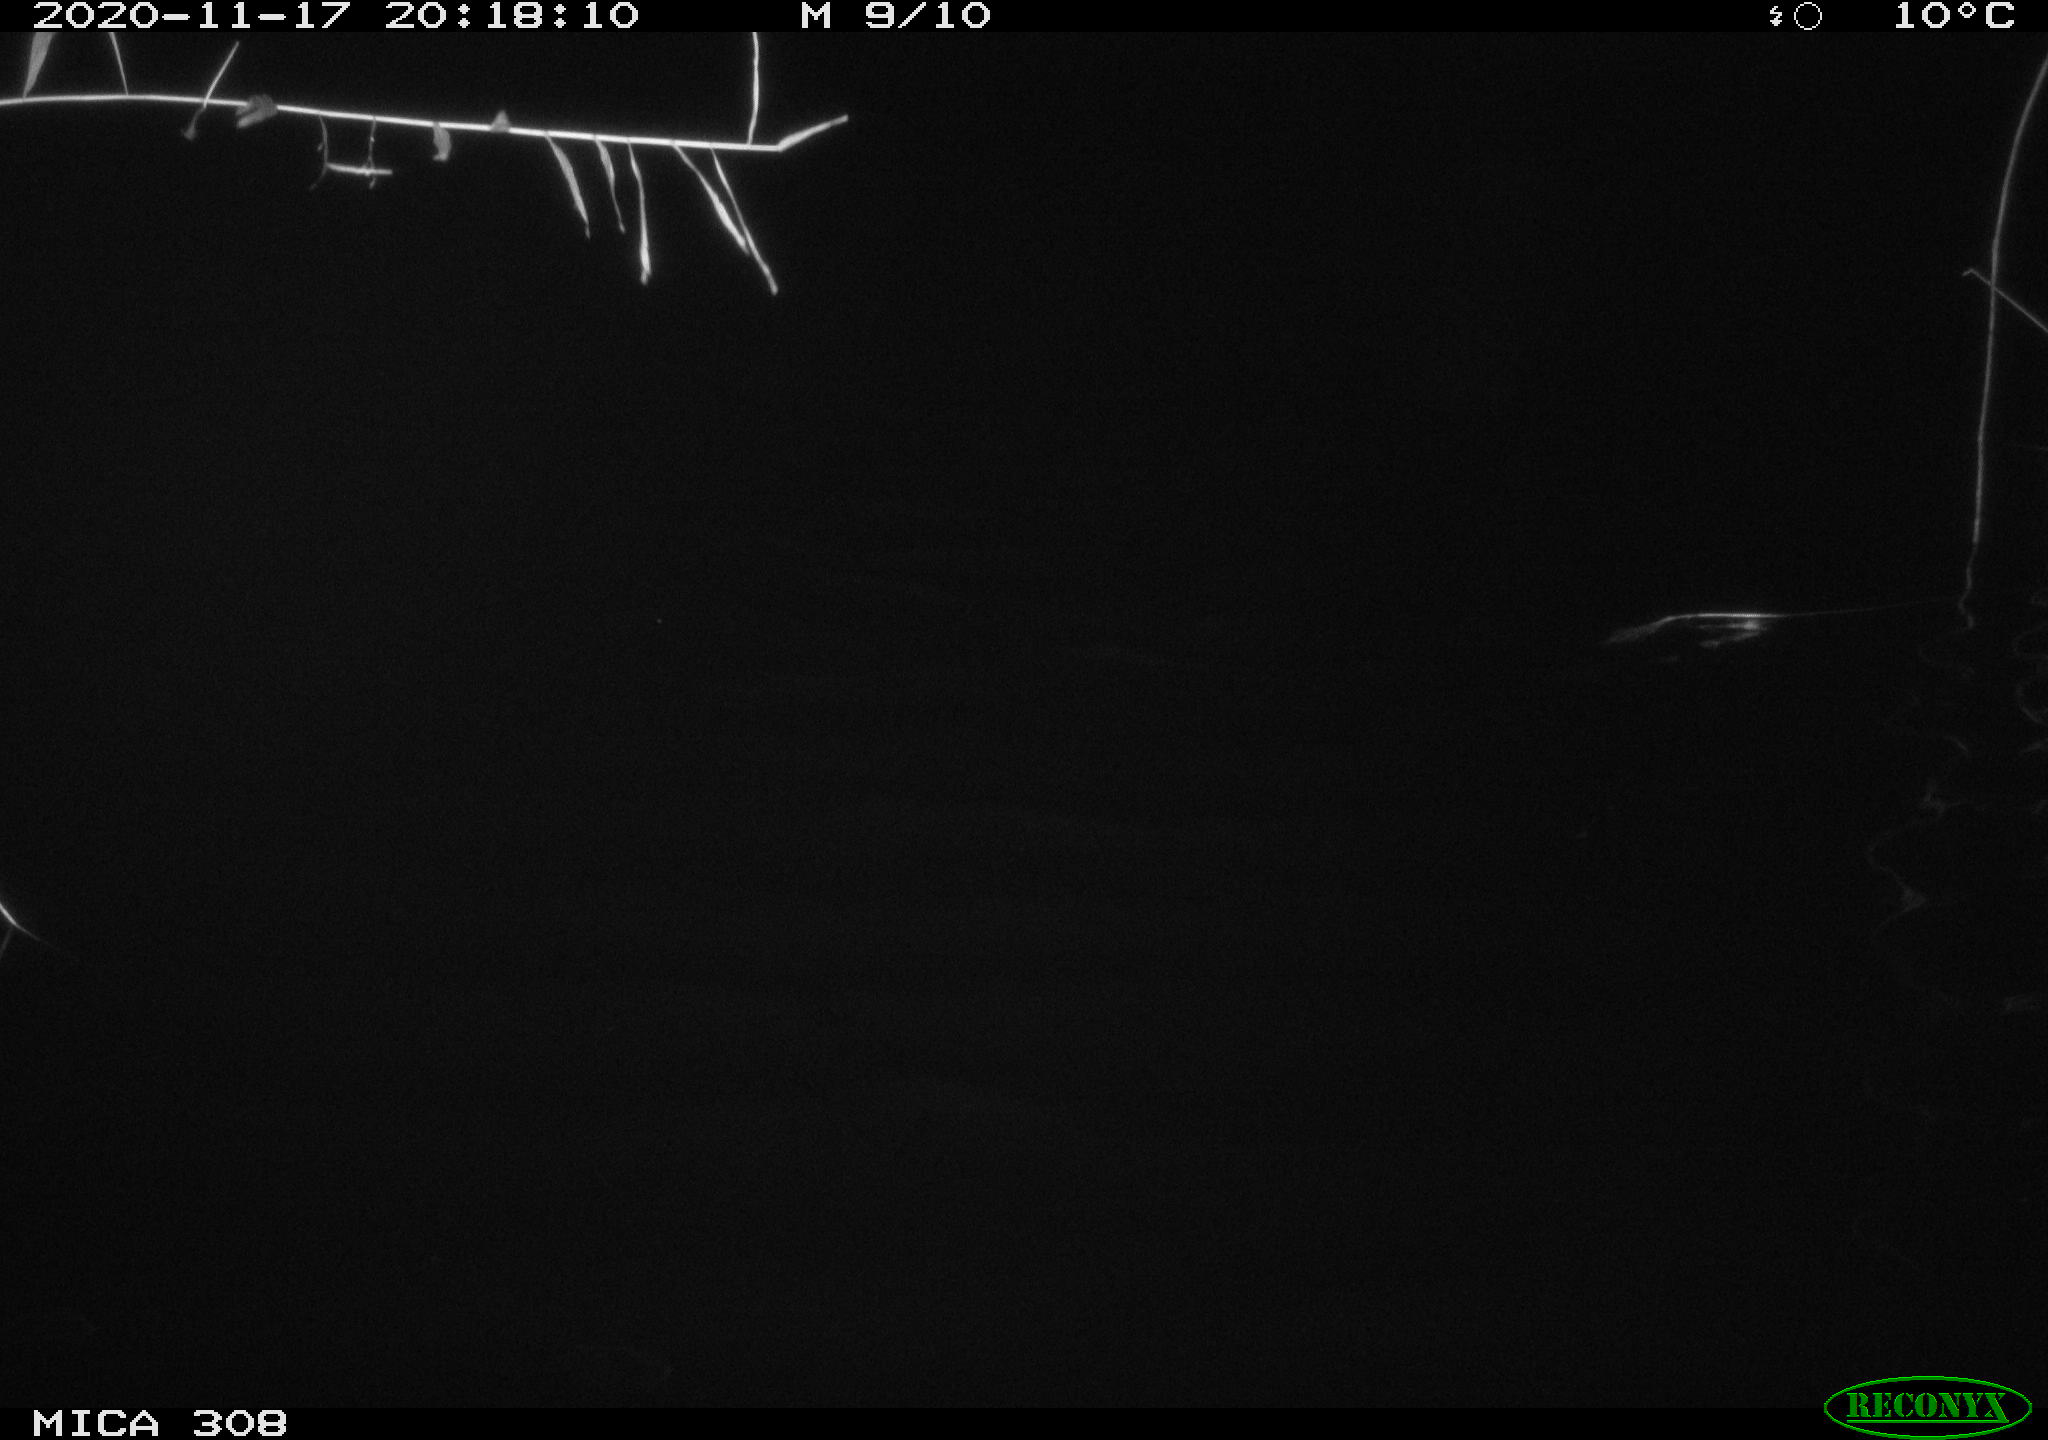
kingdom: Animalia
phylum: Chordata
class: Aves
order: Anseriformes
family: Anatidae
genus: Anas
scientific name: Anas platyrhynchos
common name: Mallard
